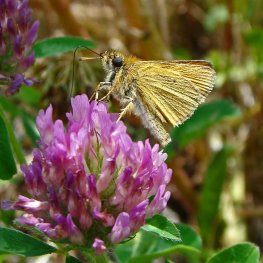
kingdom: Animalia
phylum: Arthropoda
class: Insecta
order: Lepidoptera
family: Hesperiidae
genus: Thymelicus
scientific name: Thymelicus lineola
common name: European Skipper
